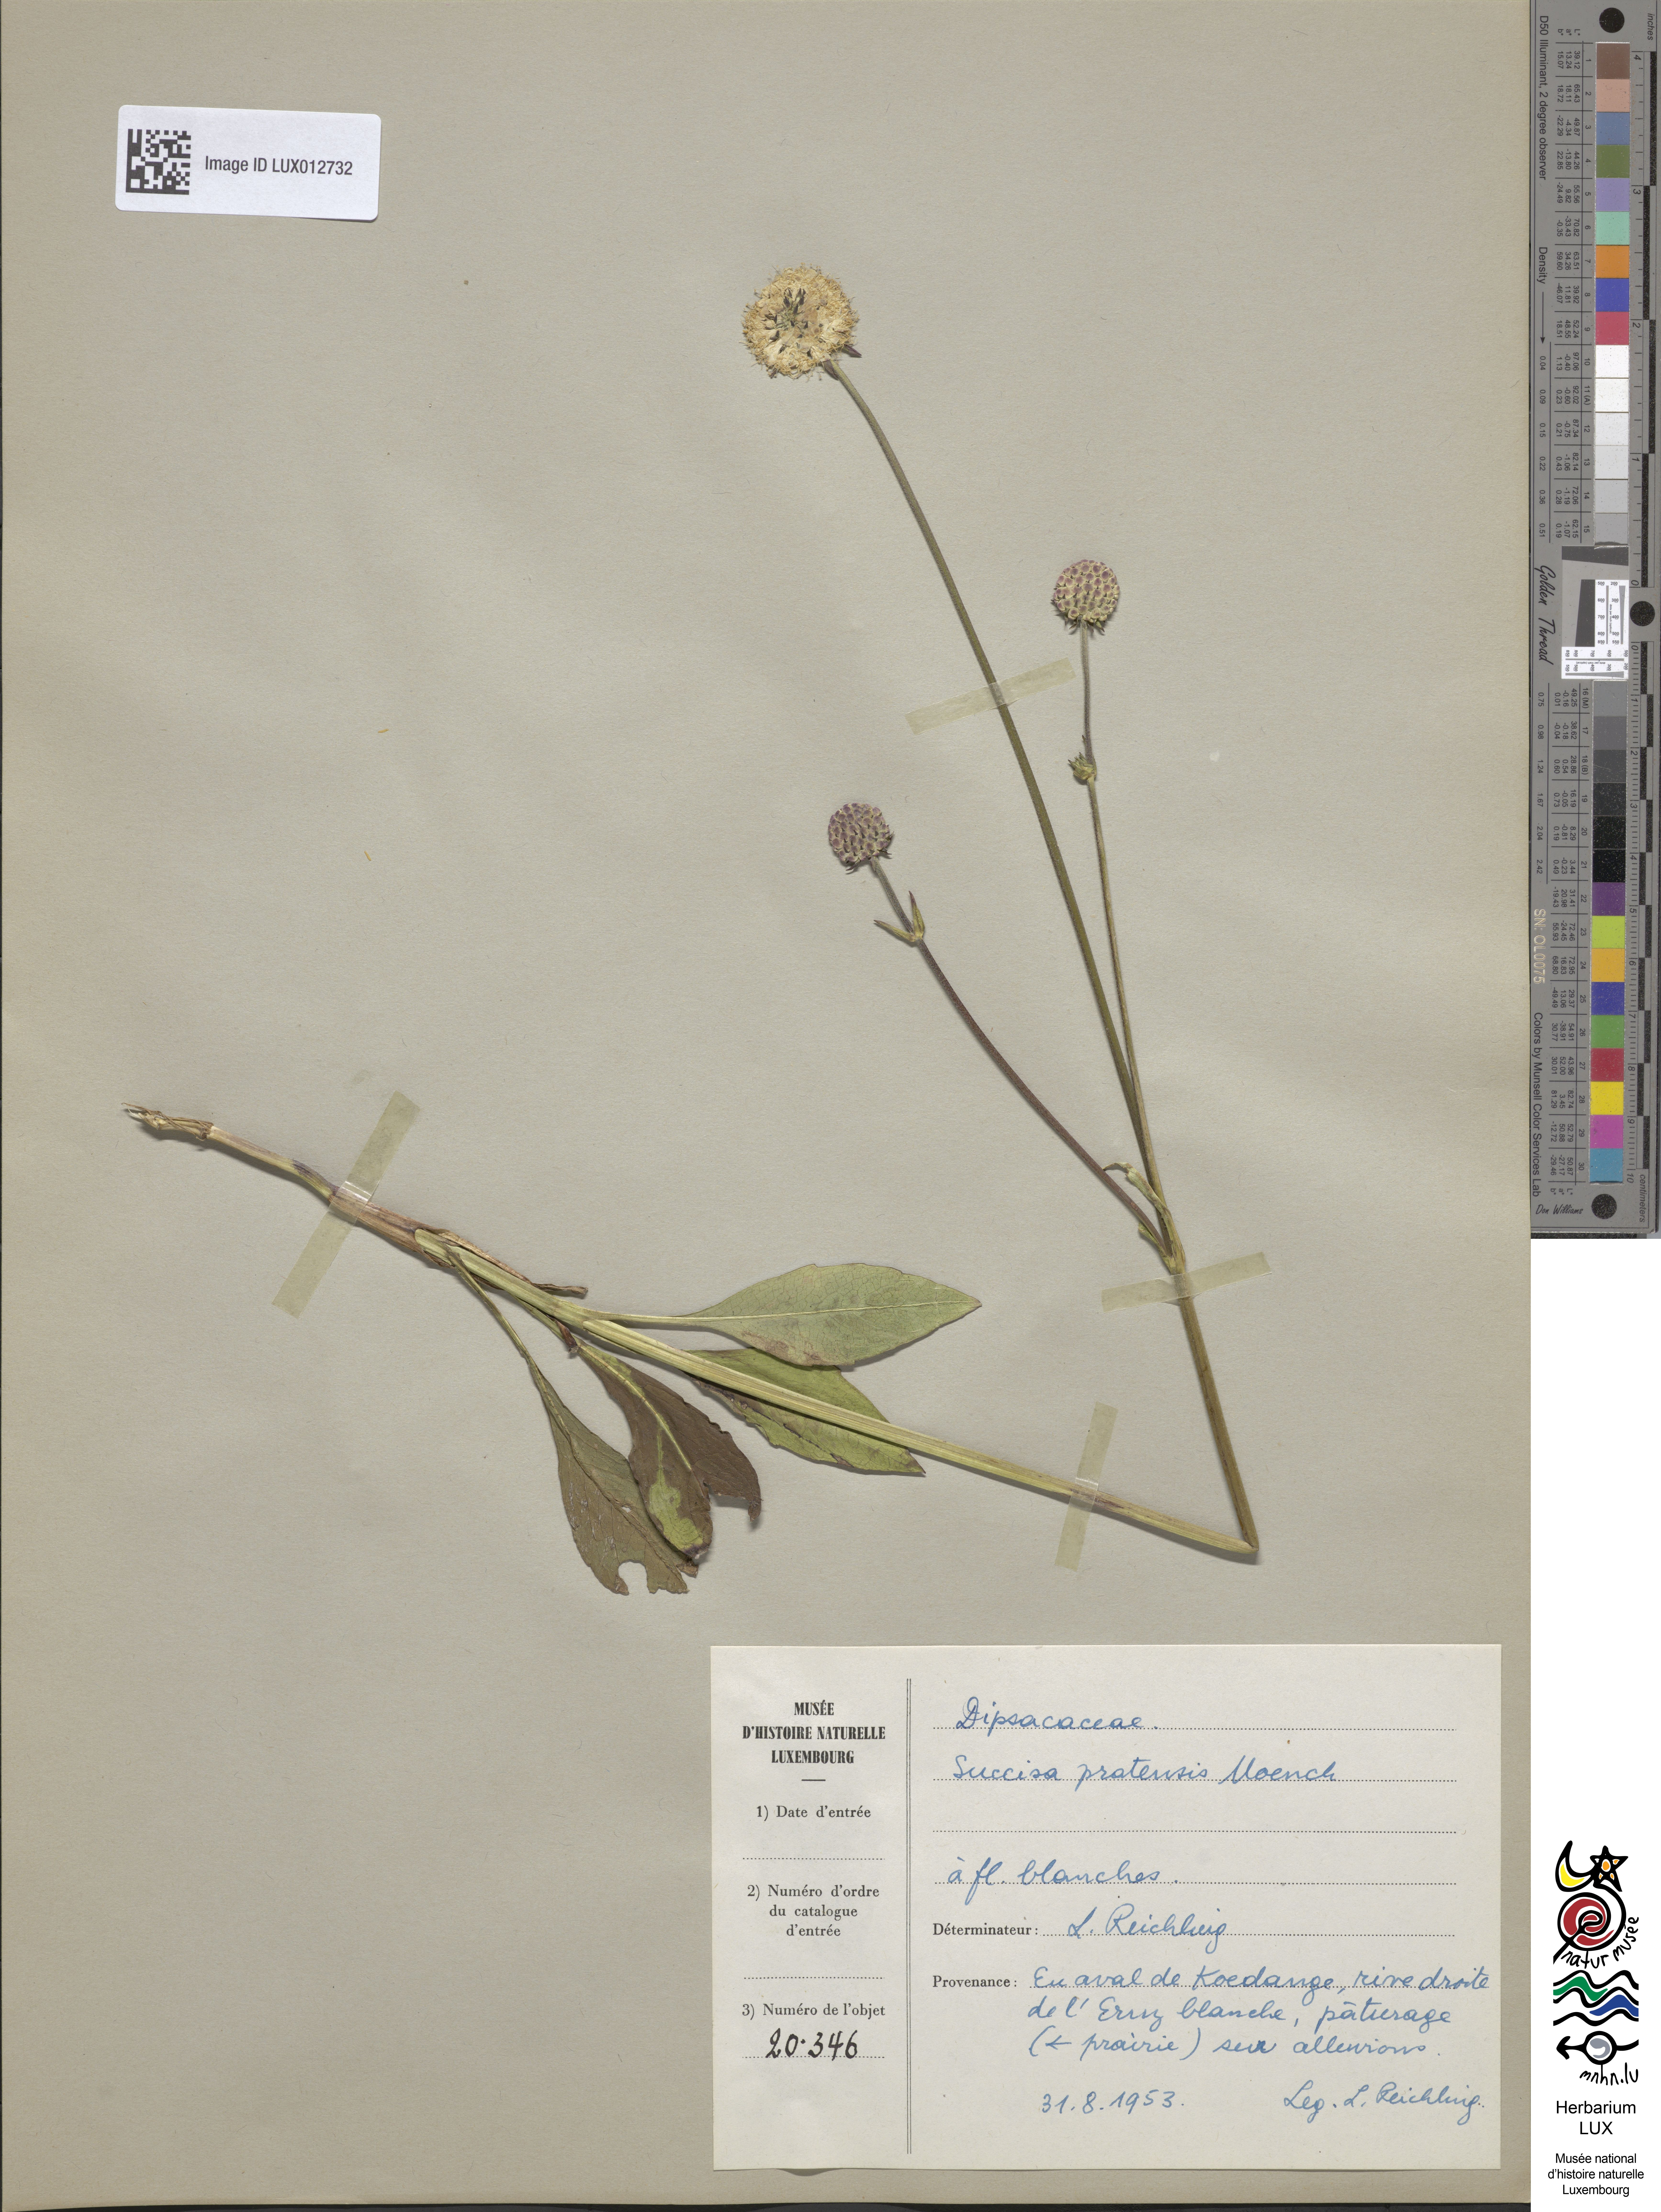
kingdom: Plantae
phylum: Tracheophyta
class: Magnoliopsida
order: Dipsacales
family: Caprifoliaceae
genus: Succisa
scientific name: Succisa pratensis
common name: Devil's-bit
